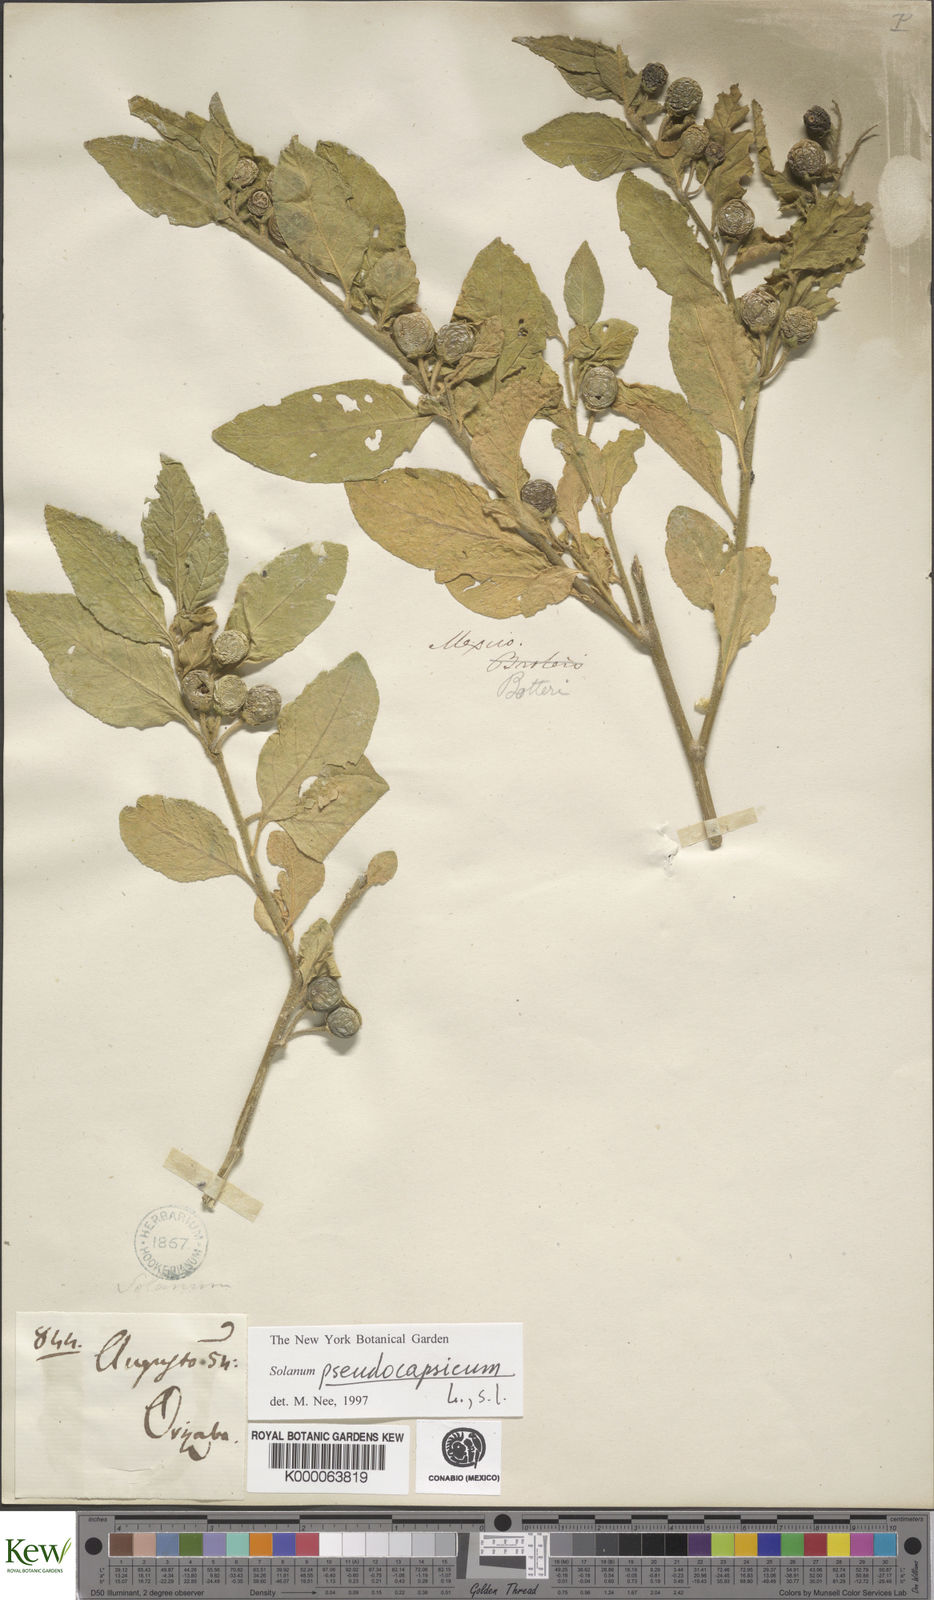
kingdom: Plantae
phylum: Tracheophyta
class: Magnoliopsida
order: Solanales
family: Solanaceae
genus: Solanum
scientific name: Solanum pseudocapsicum
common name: Jerusalem cherry
